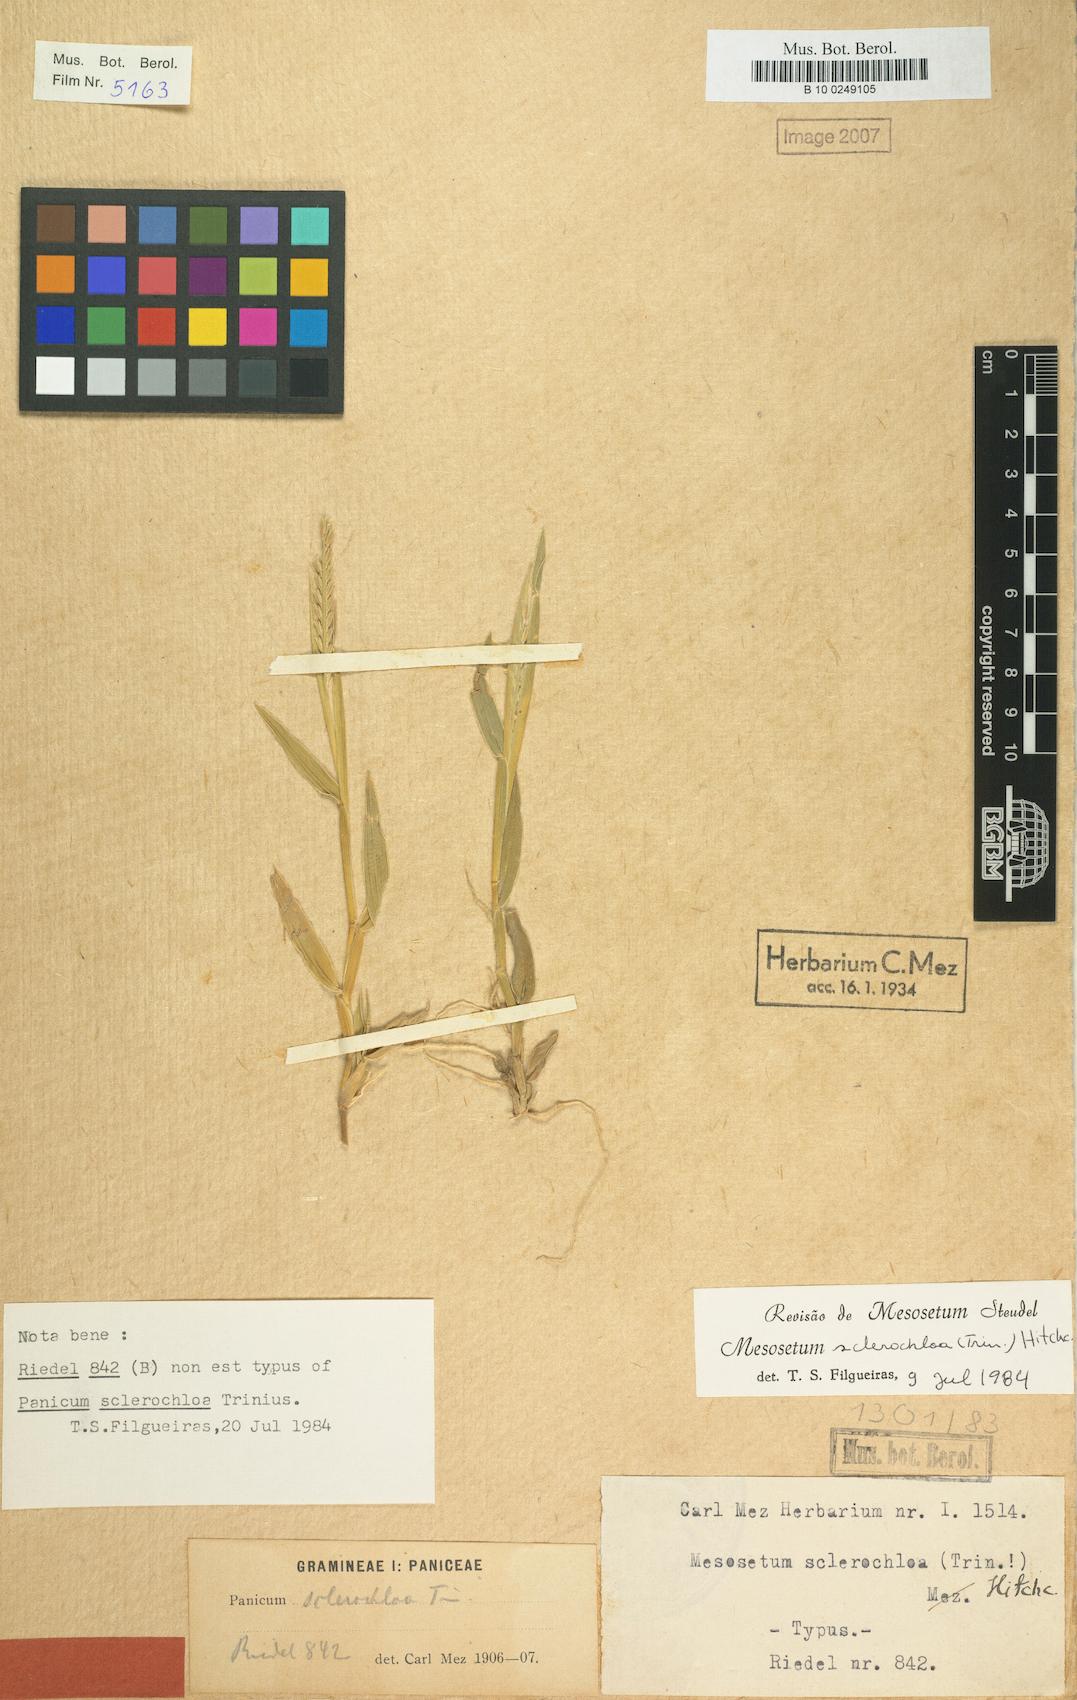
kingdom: Plantae
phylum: Tracheophyta
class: Liliopsida
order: Poales
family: Poaceae
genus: Mesosetum
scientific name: Mesosetum sclerochloa
